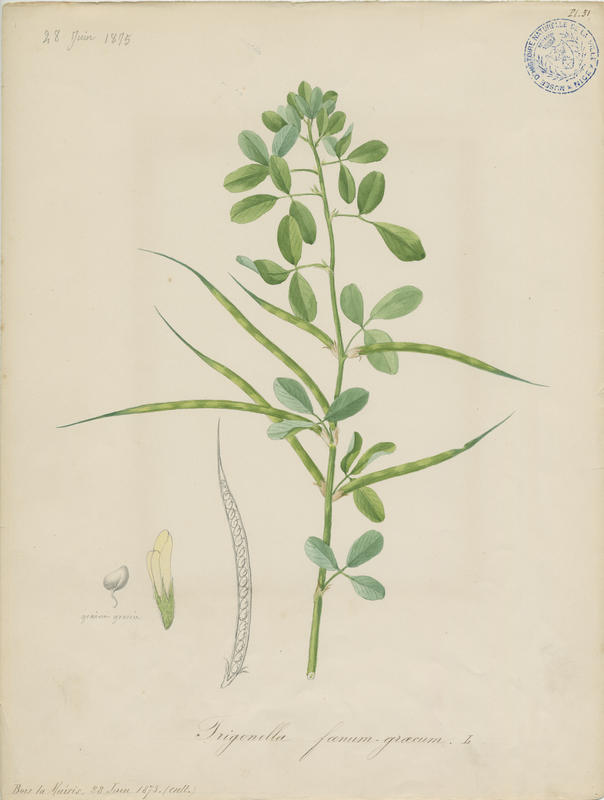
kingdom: Plantae
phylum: Tracheophyta
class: Magnoliopsida
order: Fabales
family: Fabaceae
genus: Trigonella
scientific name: Trigonella foenum-graecum
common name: Fenugreek
